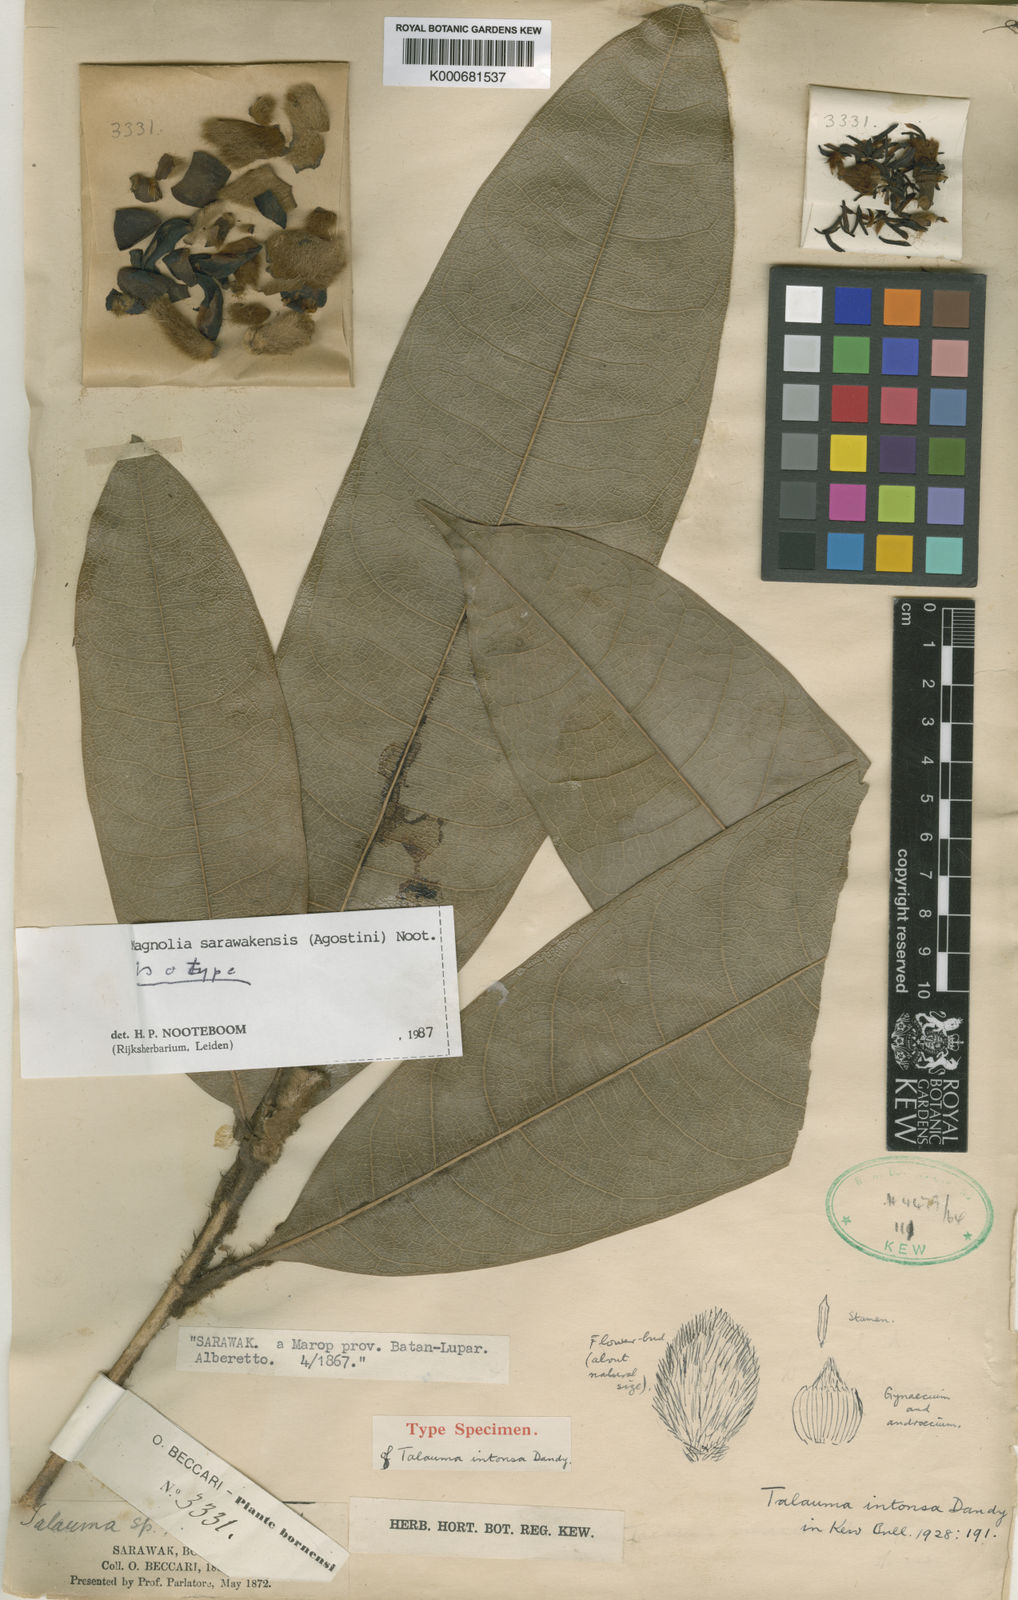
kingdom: Plantae
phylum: Tracheophyta
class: Magnoliopsida
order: Magnoliales
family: Magnoliaceae
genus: Magnolia
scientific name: Magnolia sarawakensis
